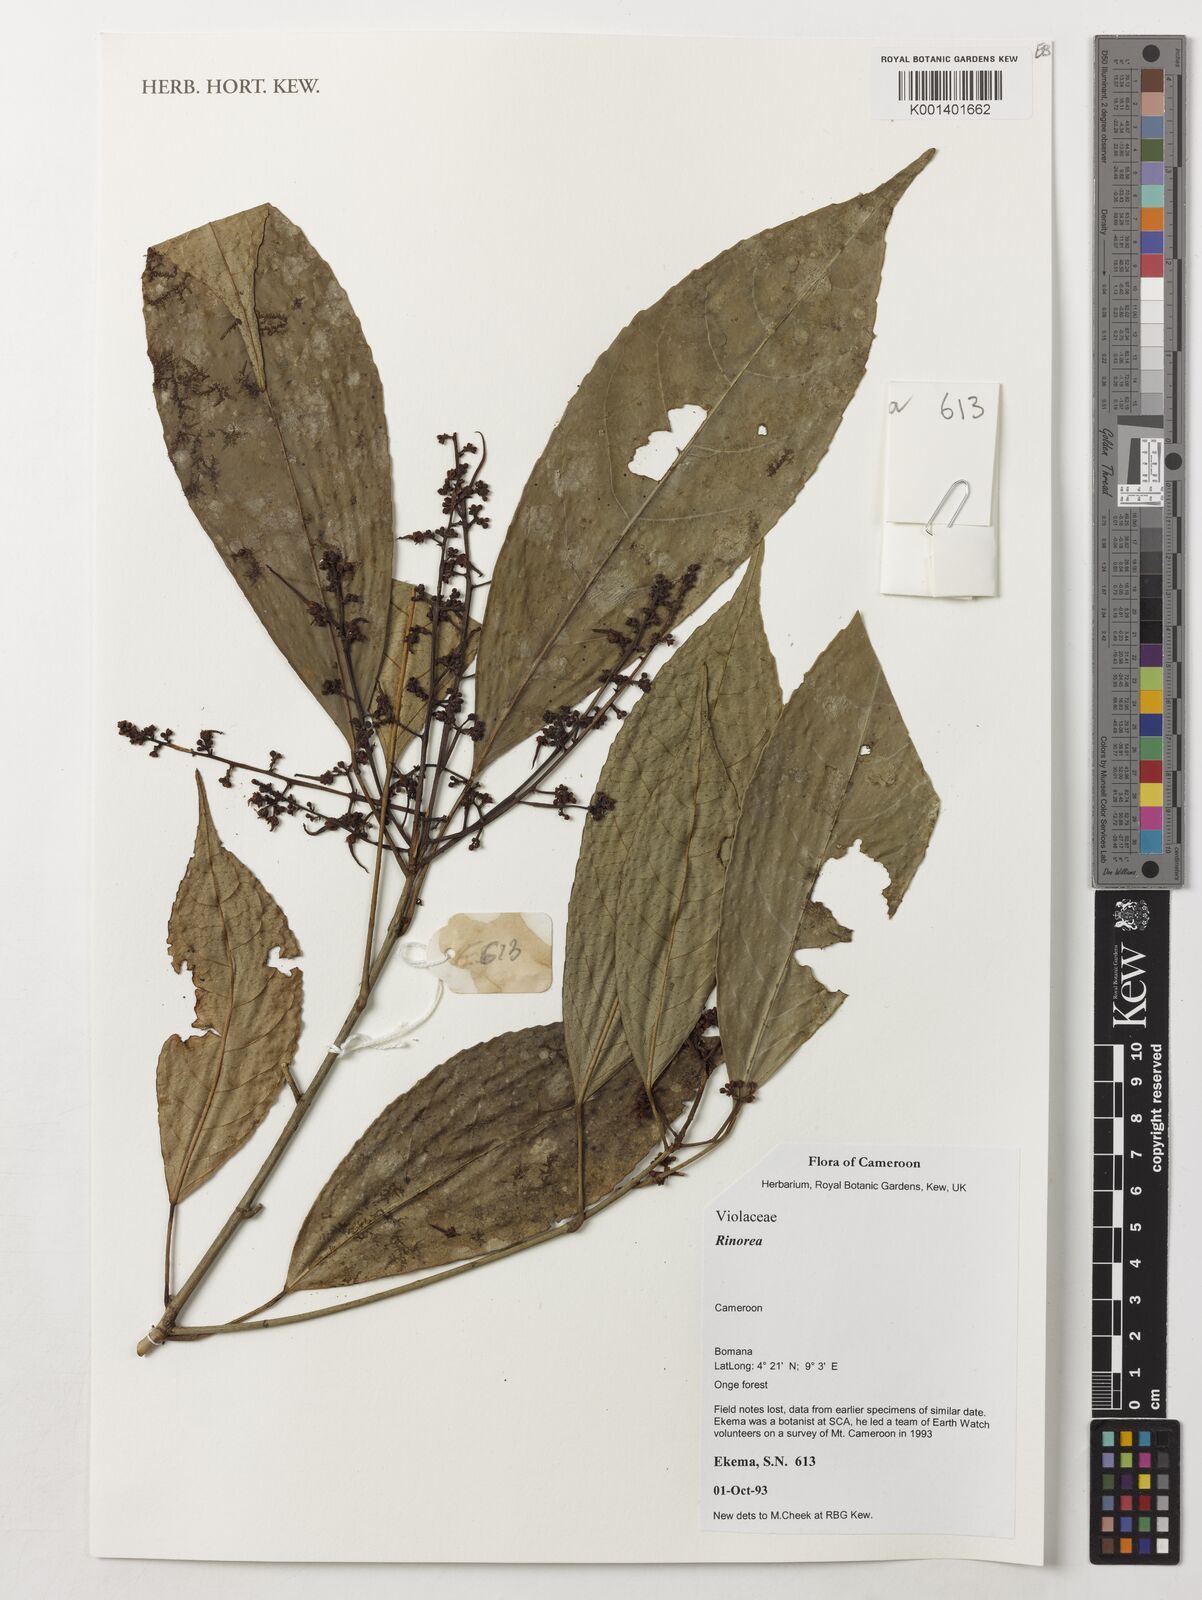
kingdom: Plantae
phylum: Tracheophyta
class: Magnoliopsida
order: Malpighiales
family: Violaceae
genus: Rinorea
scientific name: Rinorea
